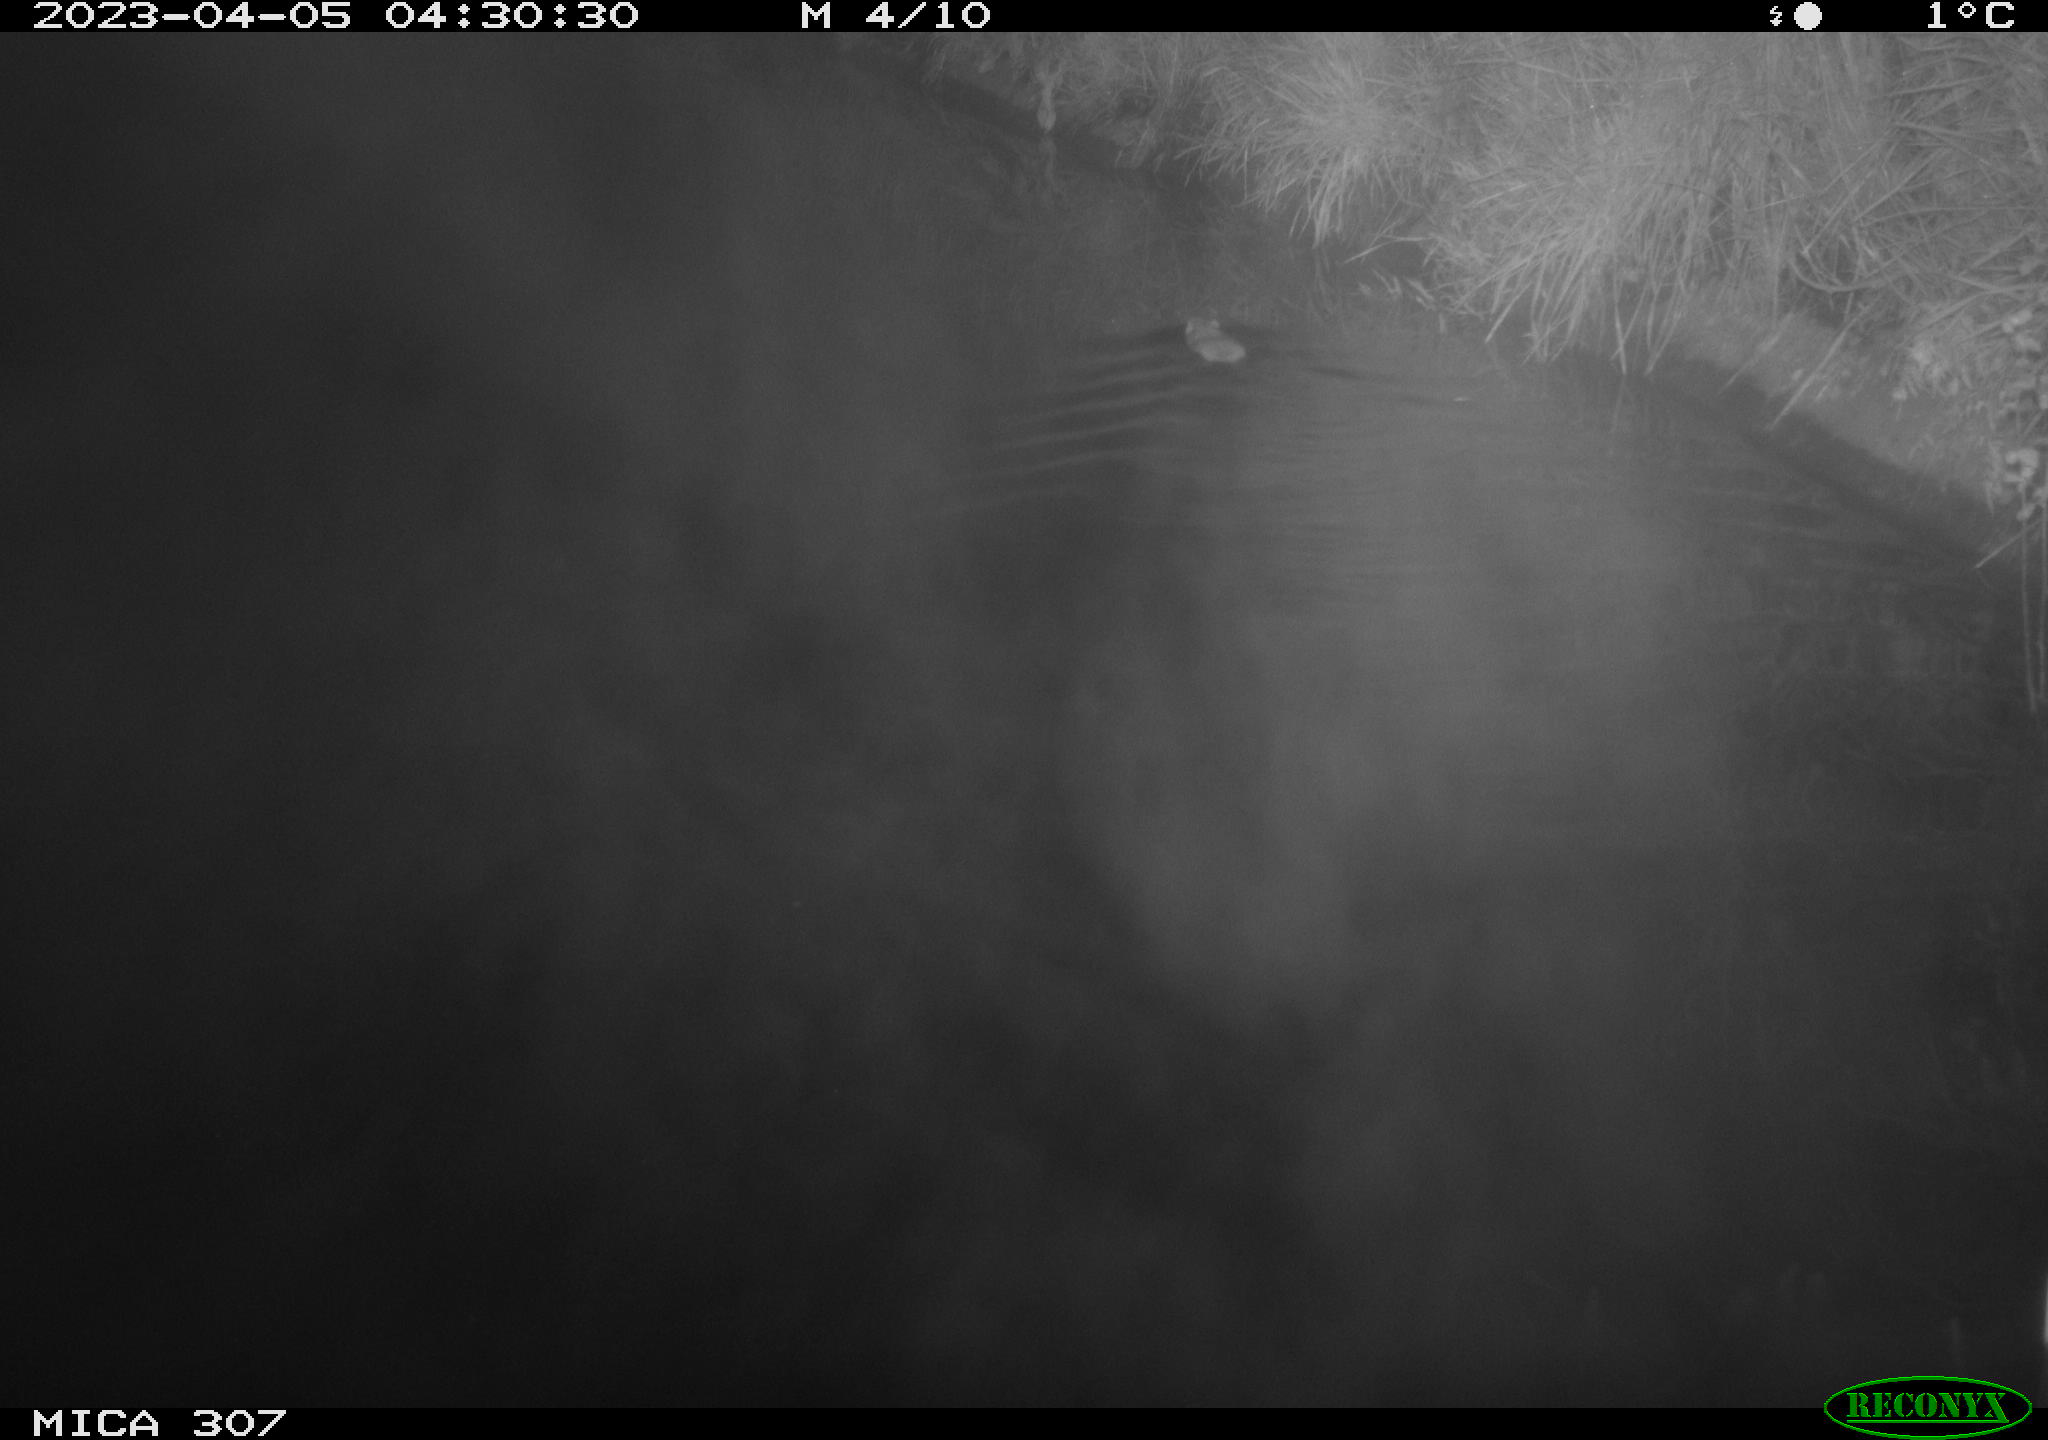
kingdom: Animalia
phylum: Chordata
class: Mammalia
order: Rodentia
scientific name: Rodentia
